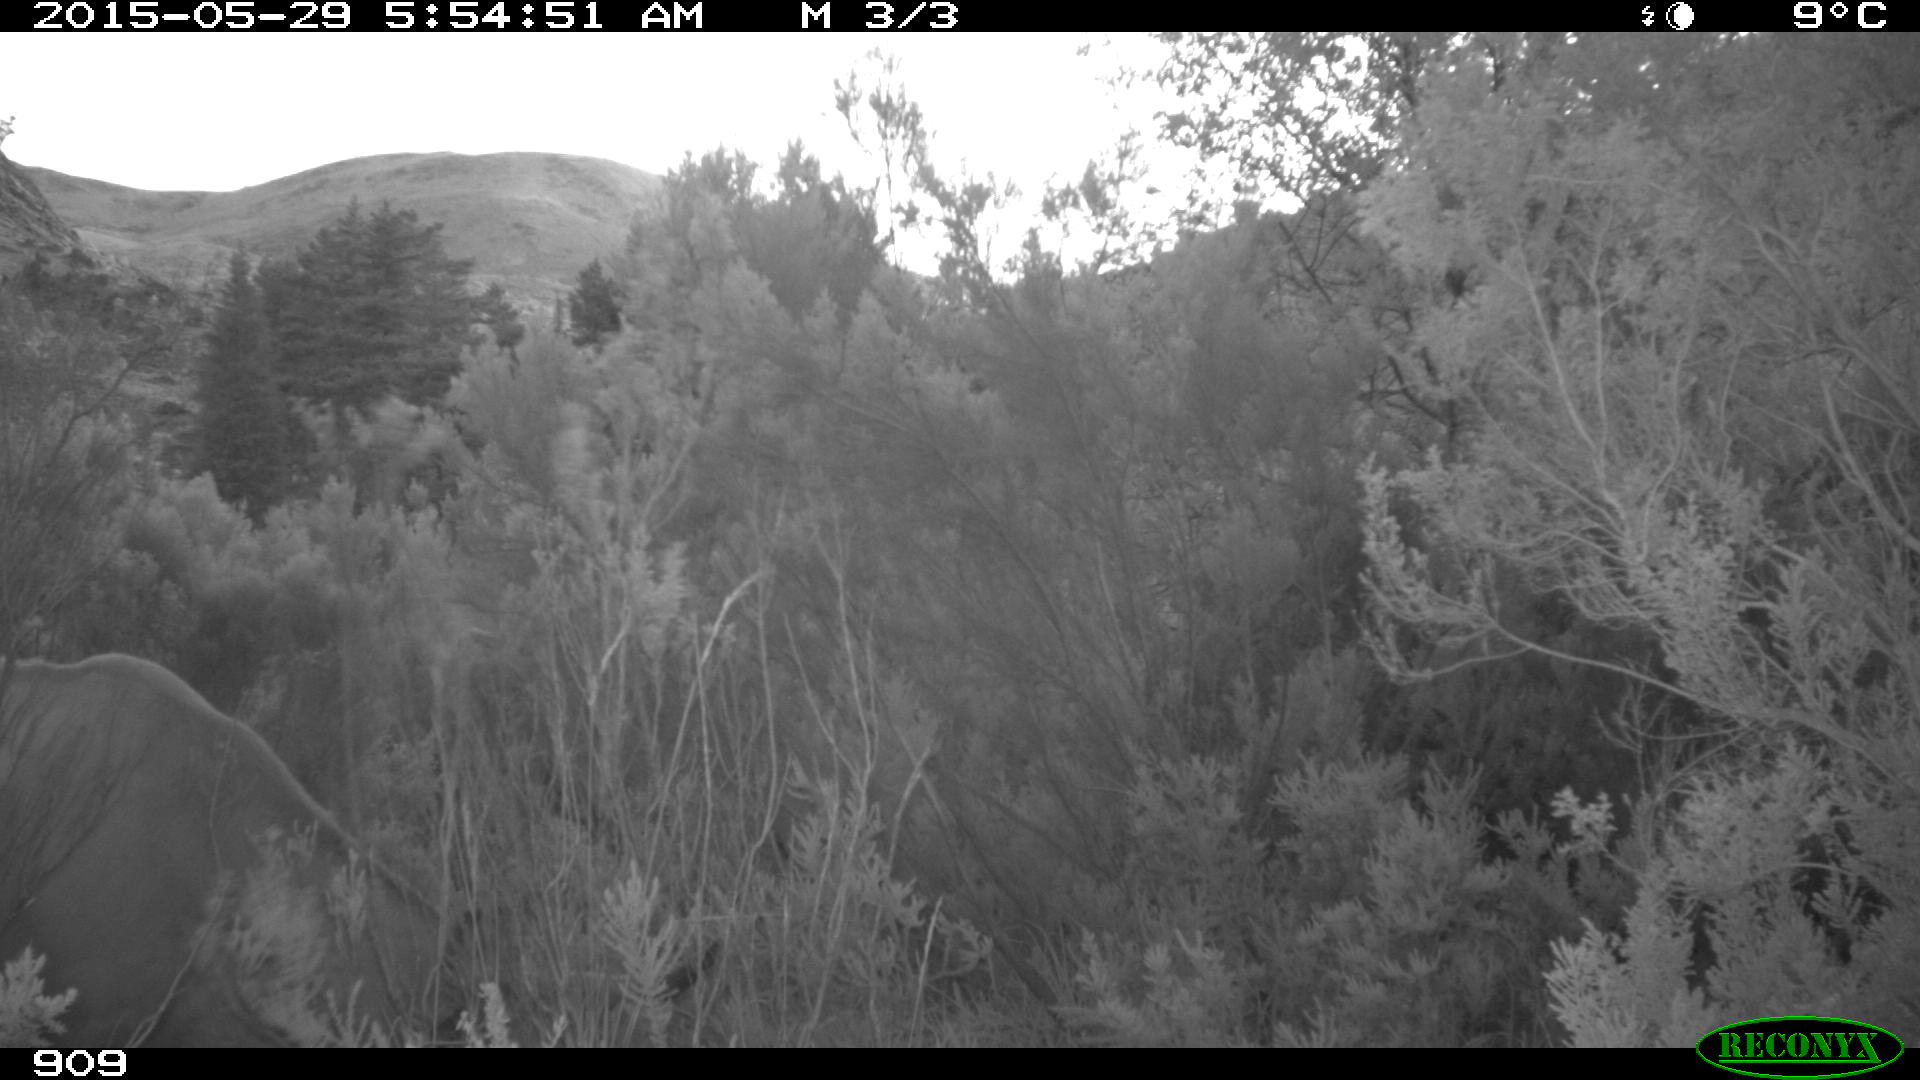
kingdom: Animalia
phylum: Chordata
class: Mammalia
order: Artiodactyla
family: Bovidae
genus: Bos
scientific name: Bos taurus
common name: Domesticated cattle
